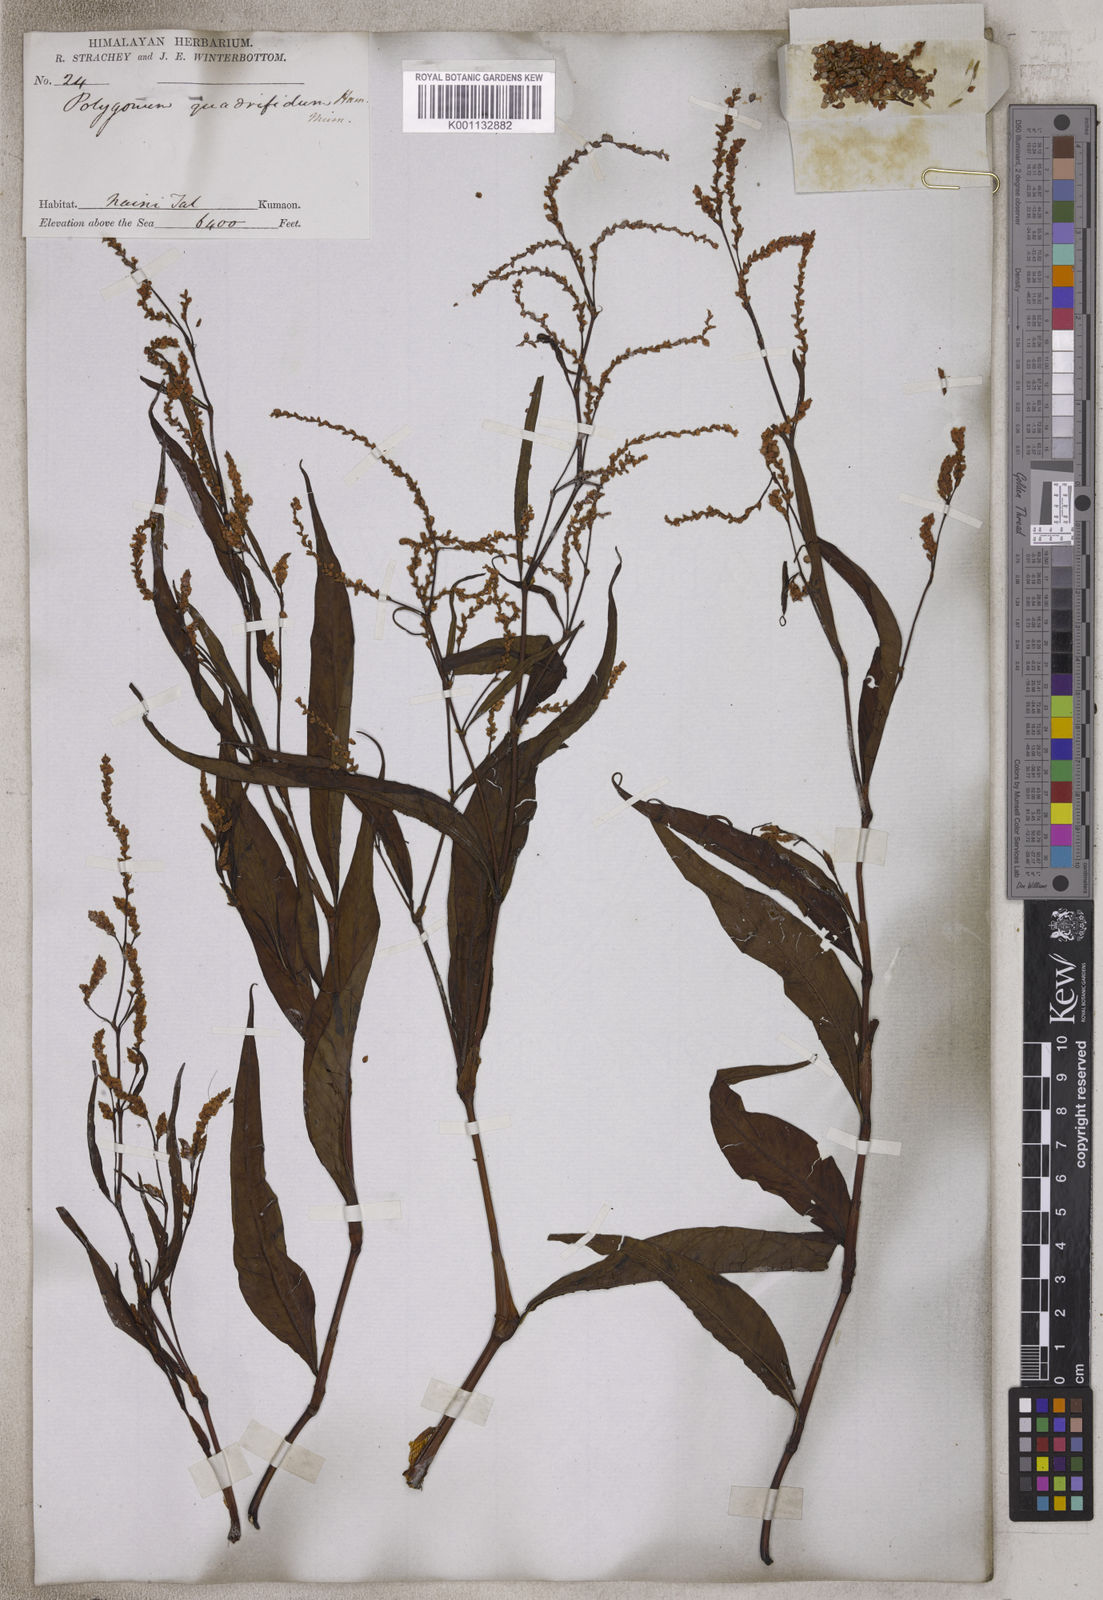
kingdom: Plantae
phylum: Tracheophyta
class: Magnoliopsida
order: Caryophyllales
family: Polygonaceae
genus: Polygonum
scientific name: Polygonum
